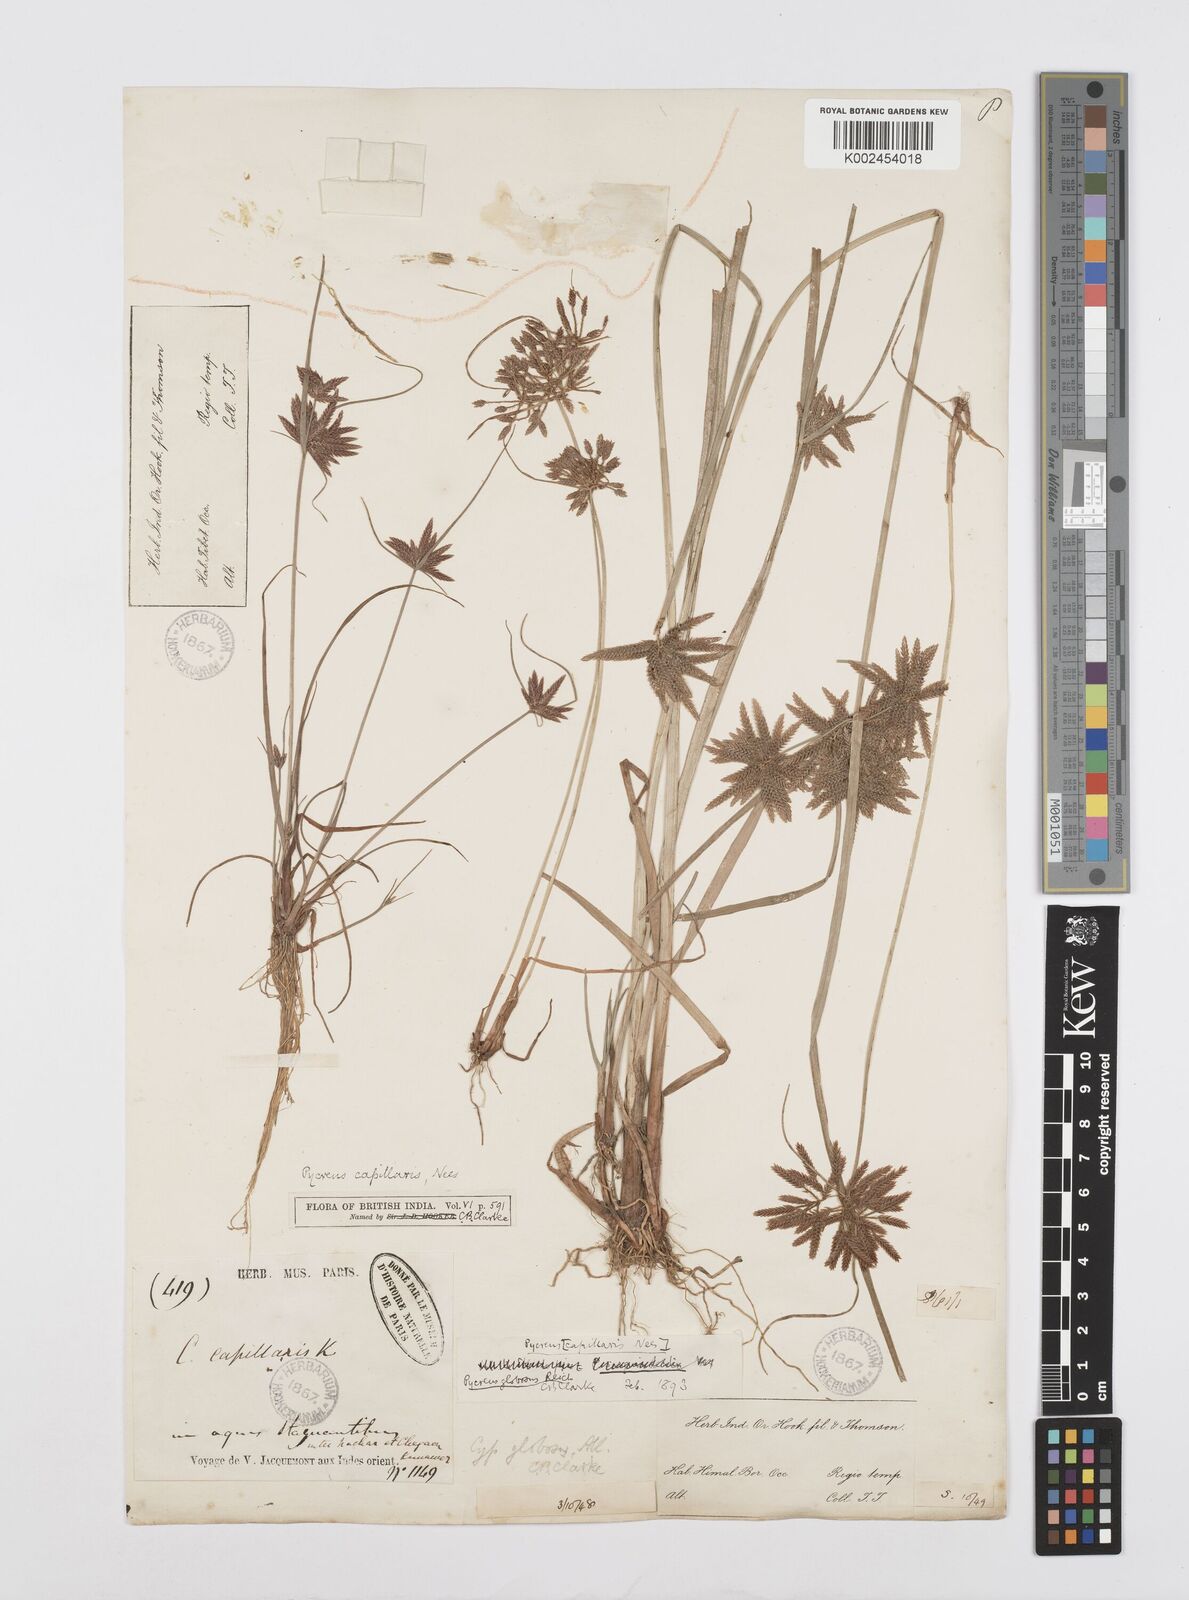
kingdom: Plantae
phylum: Tracheophyta
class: Liliopsida
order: Poales
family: Cyperaceae
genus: Cyperus
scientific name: Cyperus flavidus
